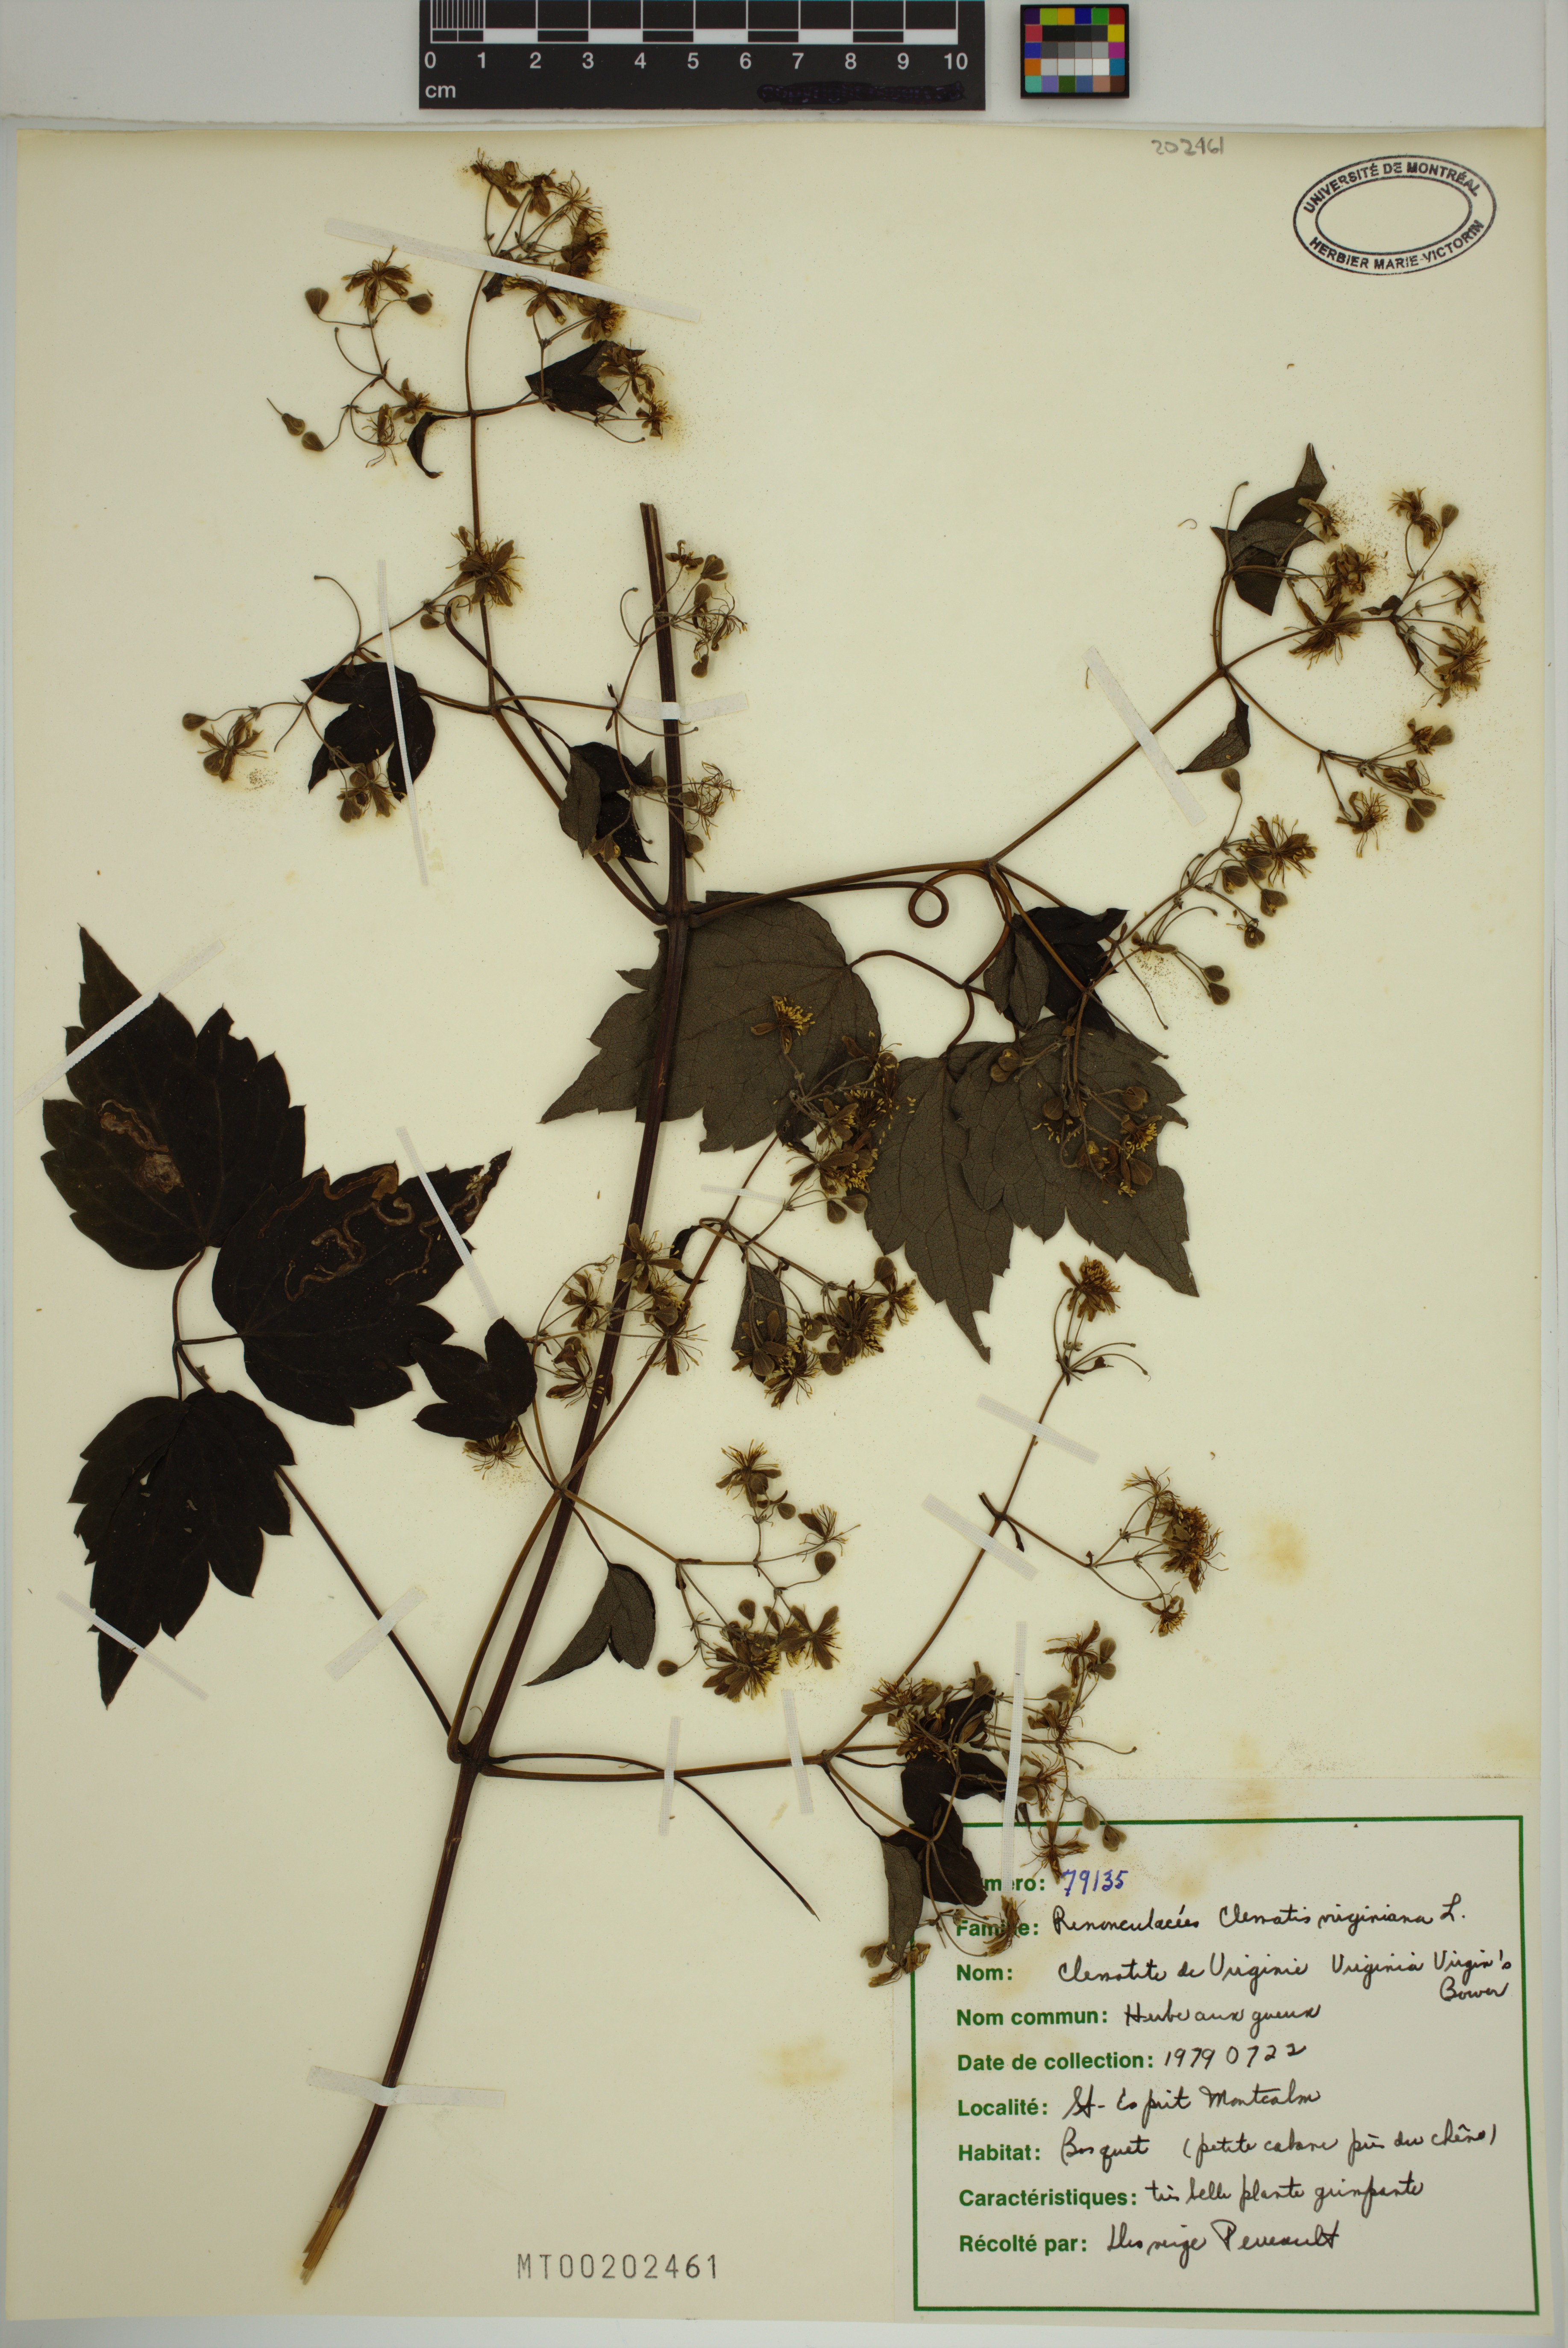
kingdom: Plantae
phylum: Tracheophyta
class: Magnoliopsida
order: Ranunculales
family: Ranunculaceae
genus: Clematis
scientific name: Clematis virginiana
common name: Virgin's-bower
